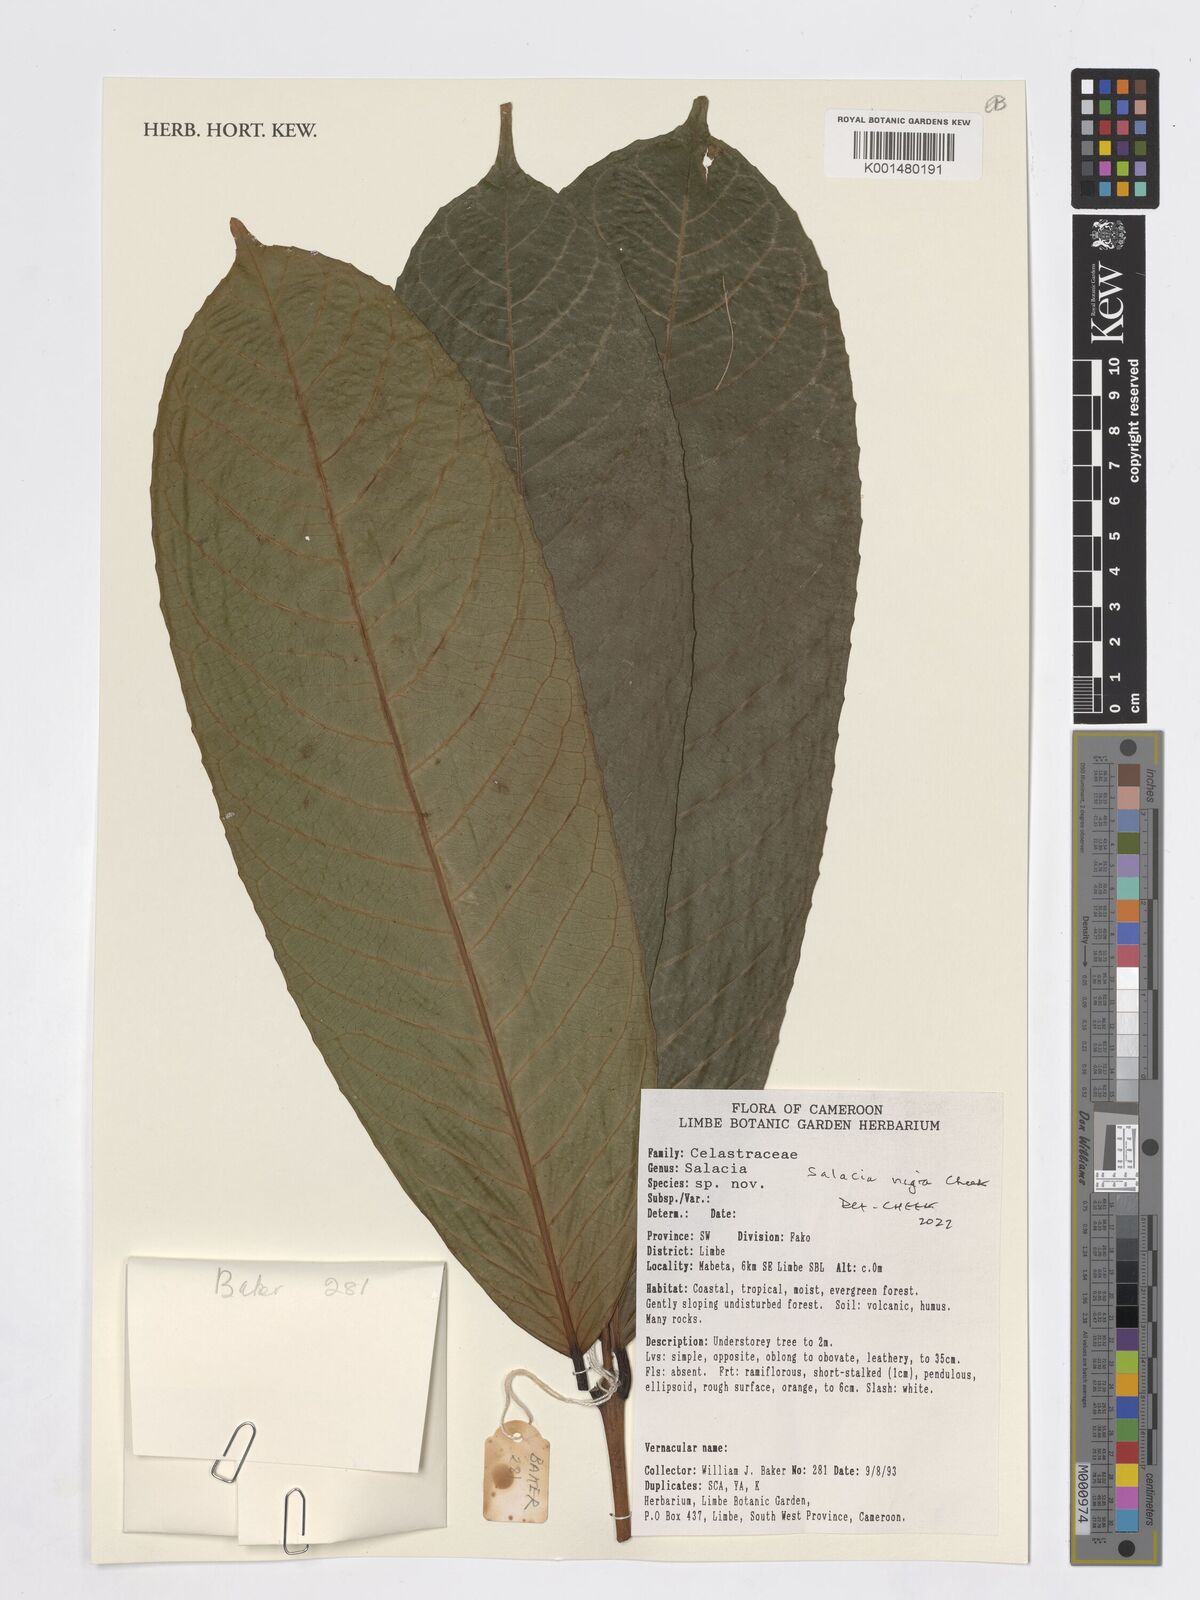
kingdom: Plantae
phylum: Tracheophyta
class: Magnoliopsida
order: Celastrales
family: Celastraceae
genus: Salacia
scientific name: Salacia nigra
